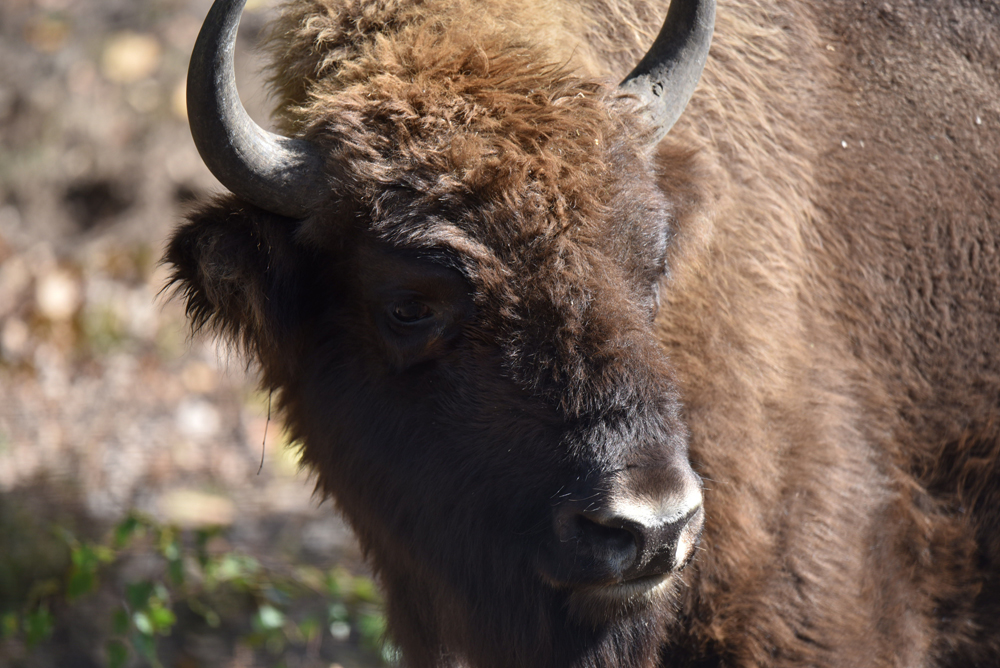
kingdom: Animalia
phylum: Chordata
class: Mammalia
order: Artiodactyla
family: Bovidae
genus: Bison
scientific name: Bison bonasus
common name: European bison
